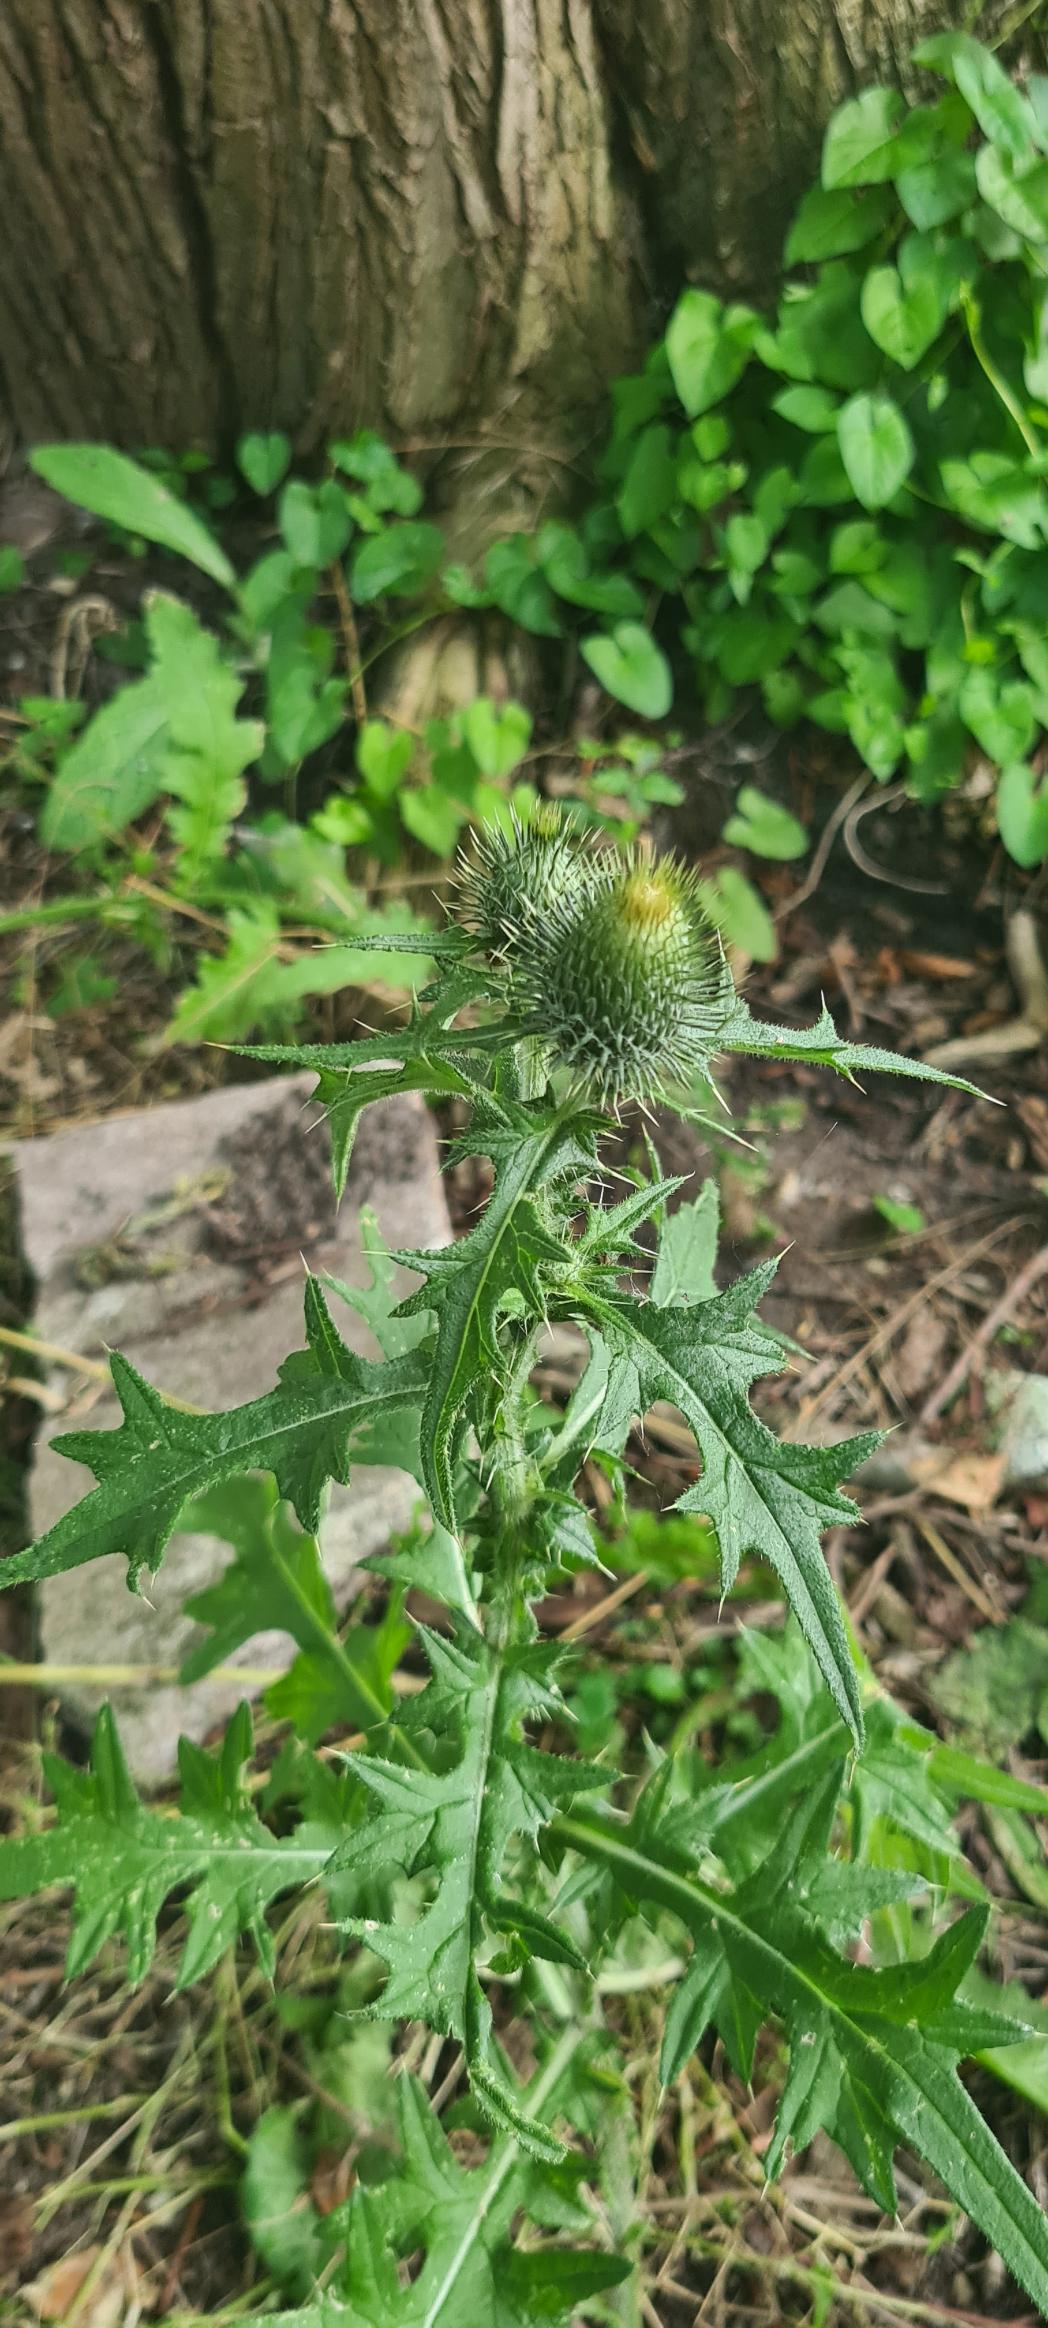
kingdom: Plantae
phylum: Tracheophyta
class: Magnoliopsida
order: Asterales
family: Asteraceae
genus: Cirsium
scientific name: Cirsium vulgare
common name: Horse-tidsel
